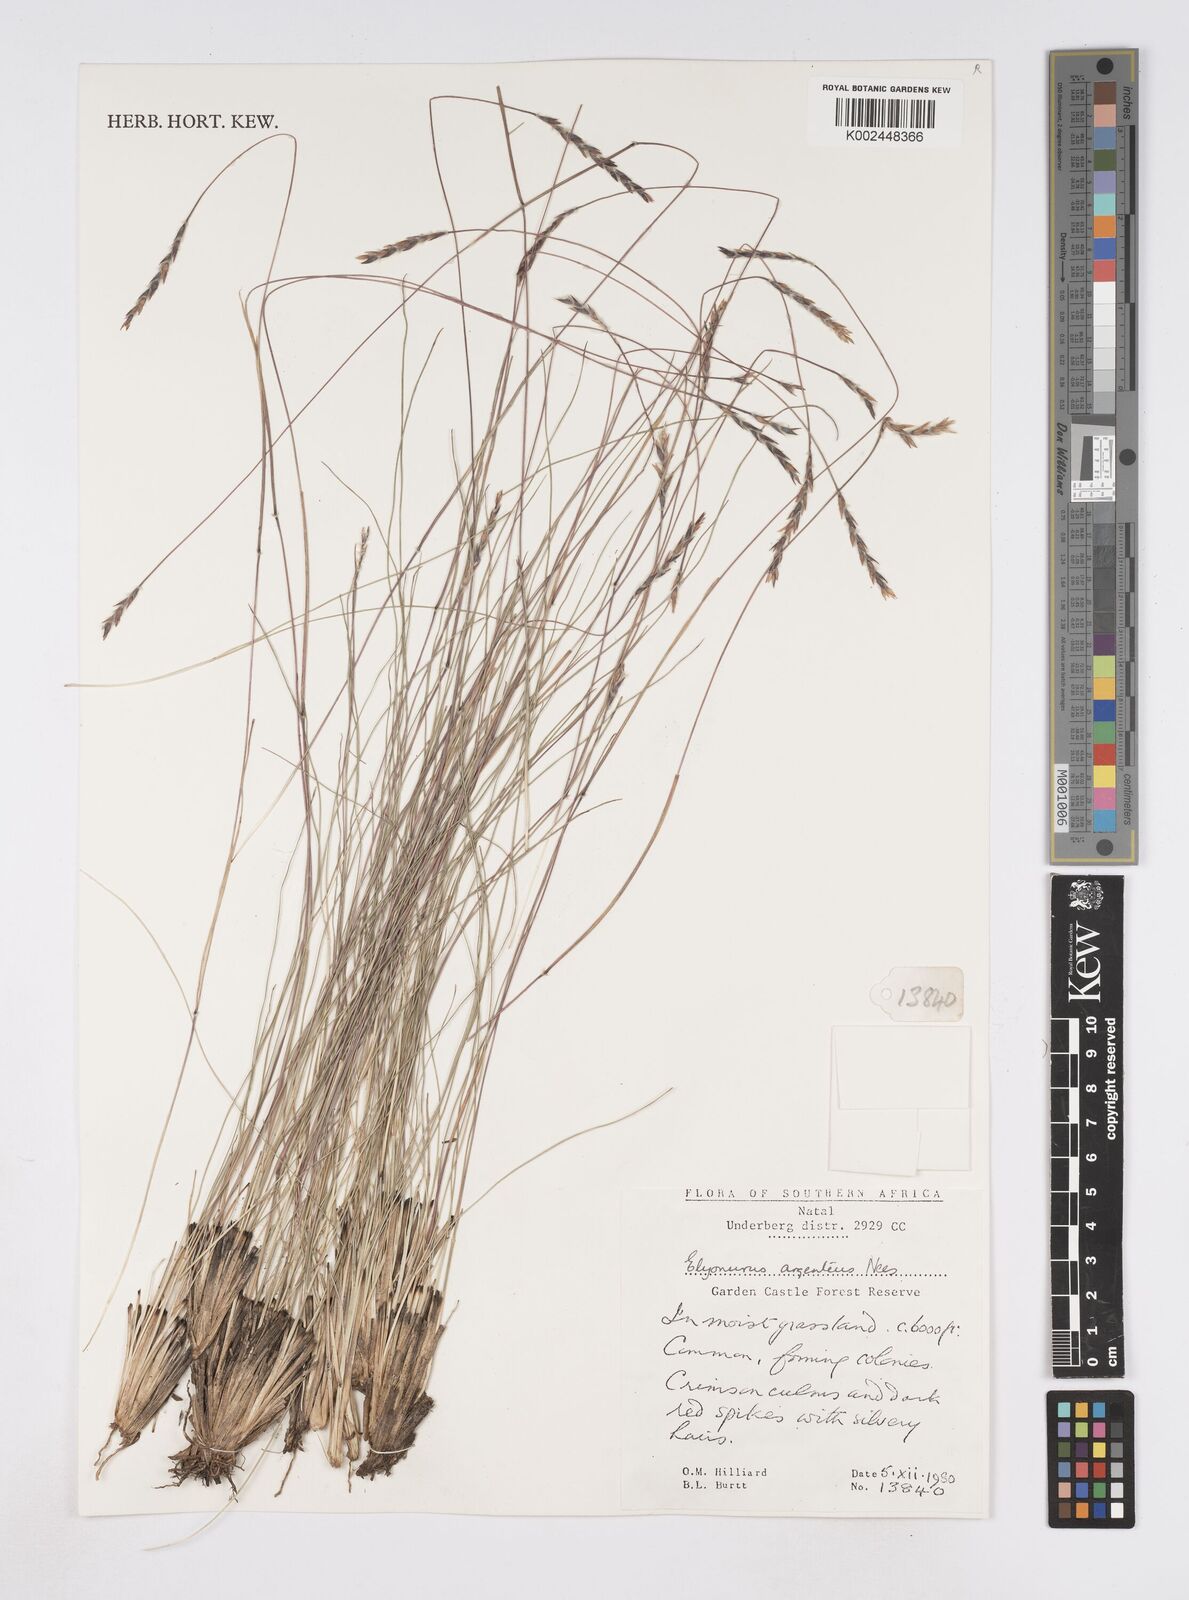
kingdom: Plantae
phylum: Tracheophyta
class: Liliopsida
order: Poales
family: Poaceae
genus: Elionurus
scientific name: Elionurus muticus
